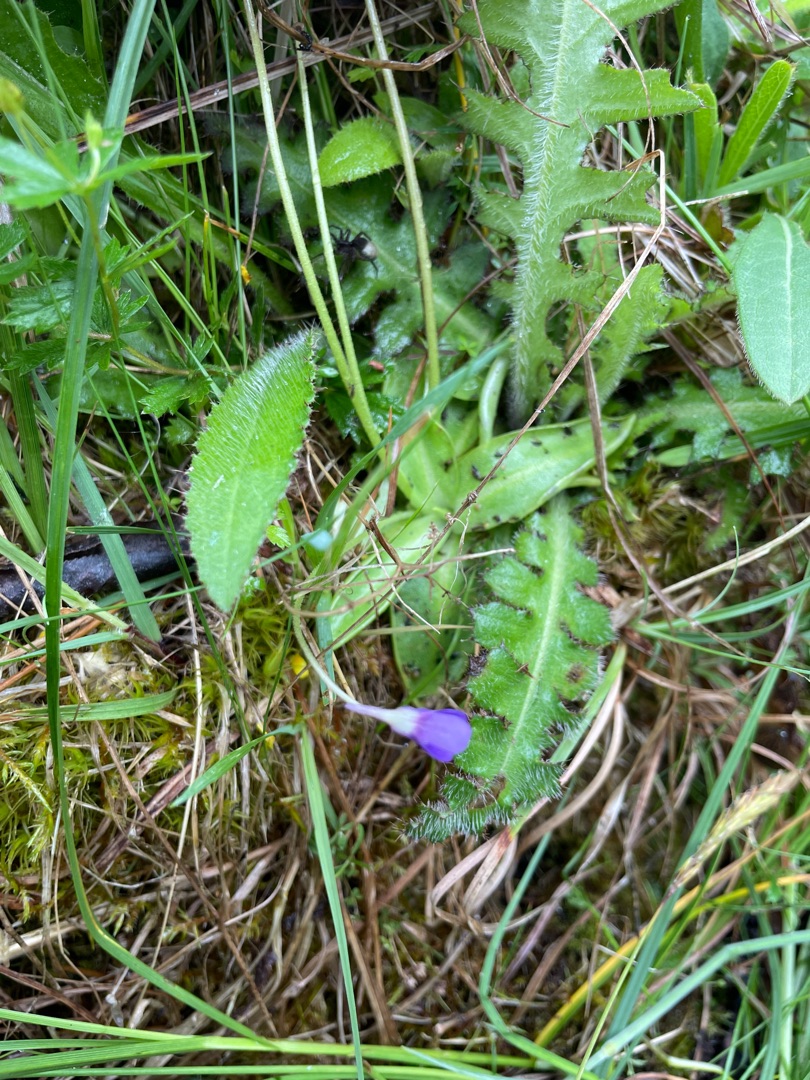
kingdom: Plantae
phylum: Tracheophyta
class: Magnoliopsida
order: Lamiales
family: Lentibulariaceae
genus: Pinguicula
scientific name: Pinguicula vulgaris
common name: Vibefedt
